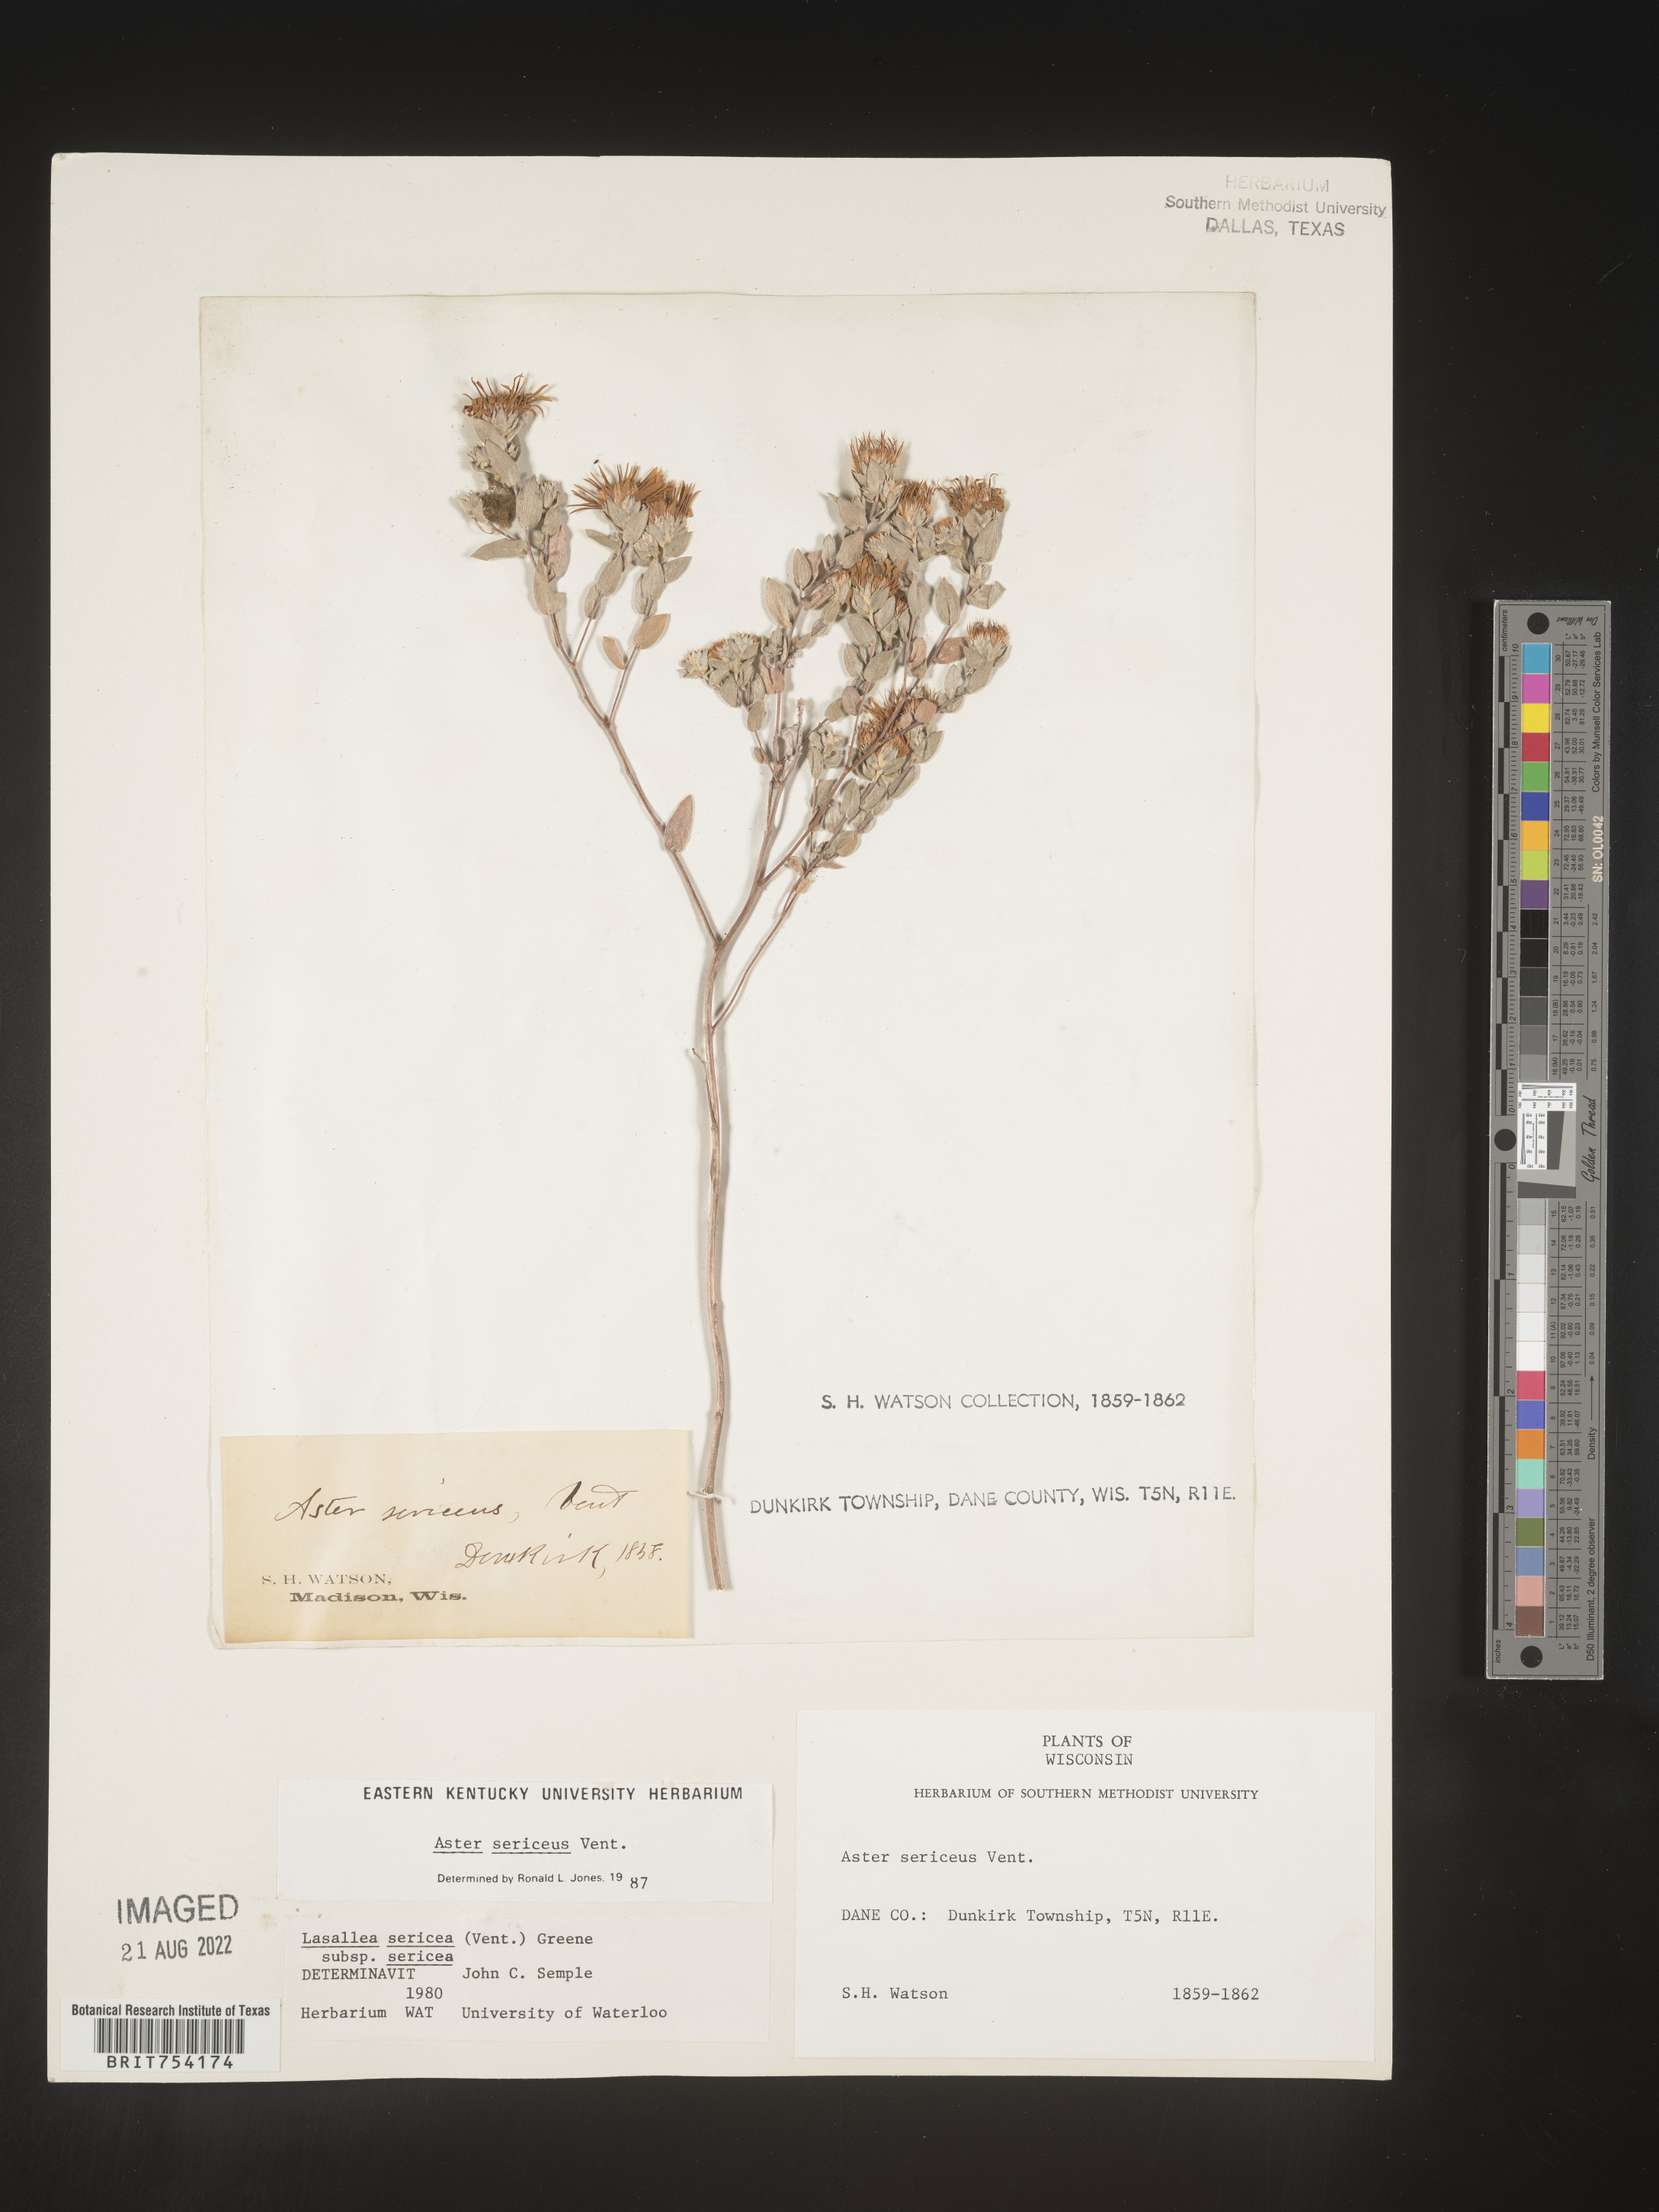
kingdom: Plantae
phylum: Tracheophyta
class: Magnoliopsida
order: Asterales
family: Asteraceae
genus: Symphyotrichum
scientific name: Symphyotrichum sericeum
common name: Silky aster
